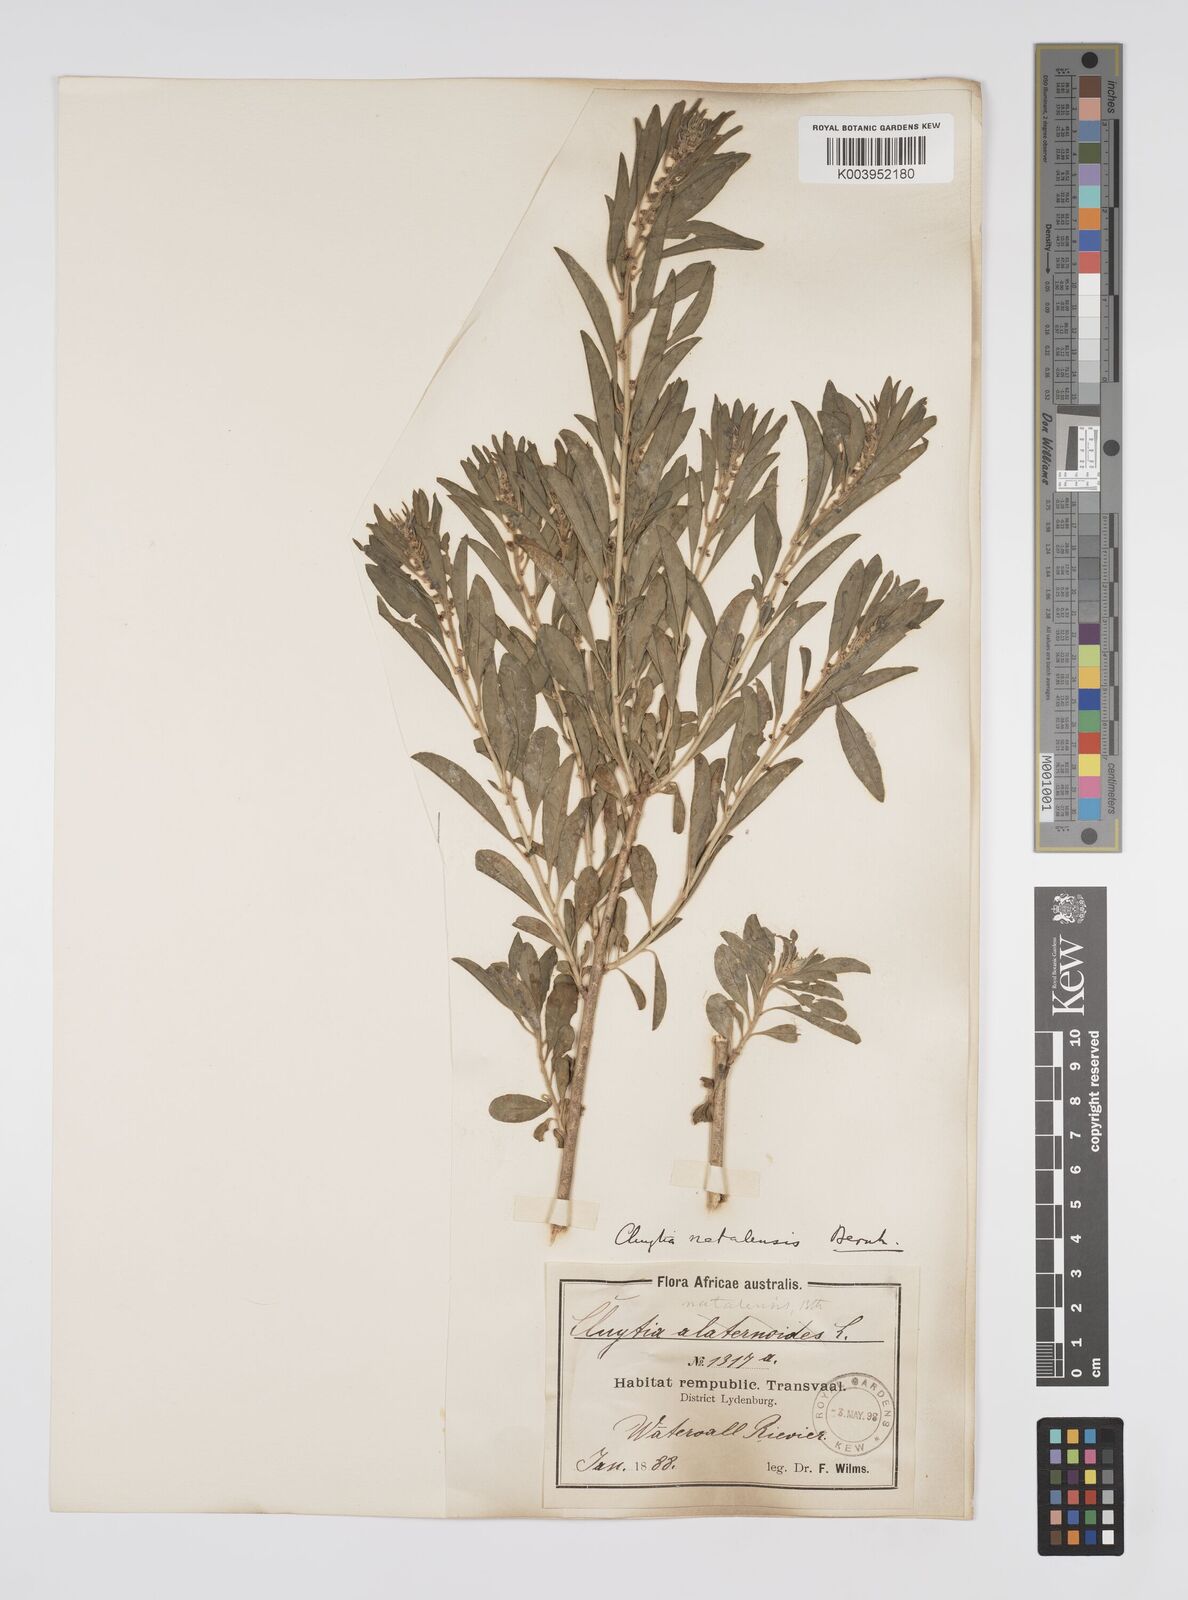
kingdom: Plantae
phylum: Tracheophyta
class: Magnoliopsida
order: Malpighiales
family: Peraceae
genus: Clutia
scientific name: Clutia natalensis
